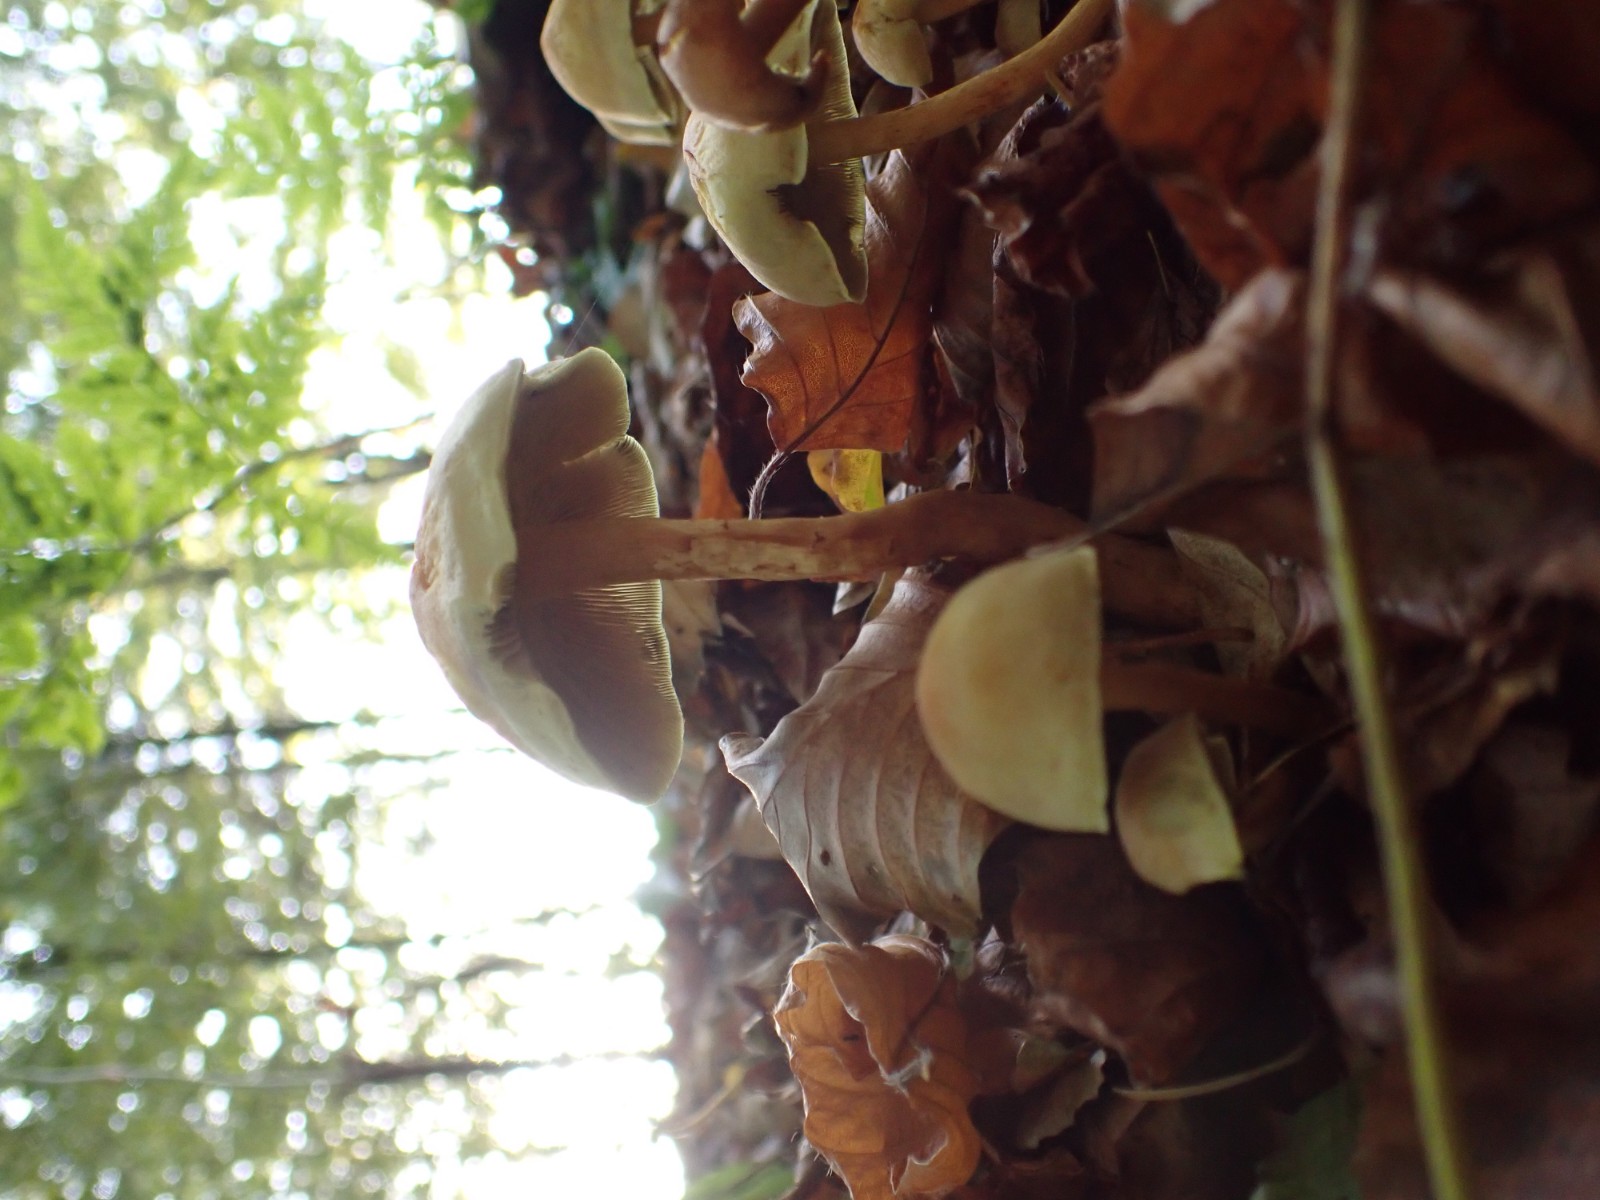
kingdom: Fungi
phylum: Basidiomycota
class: Agaricomycetes
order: Agaricales
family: Strophariaceae
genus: Hypholoma
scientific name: Hypholoma fasciculare
